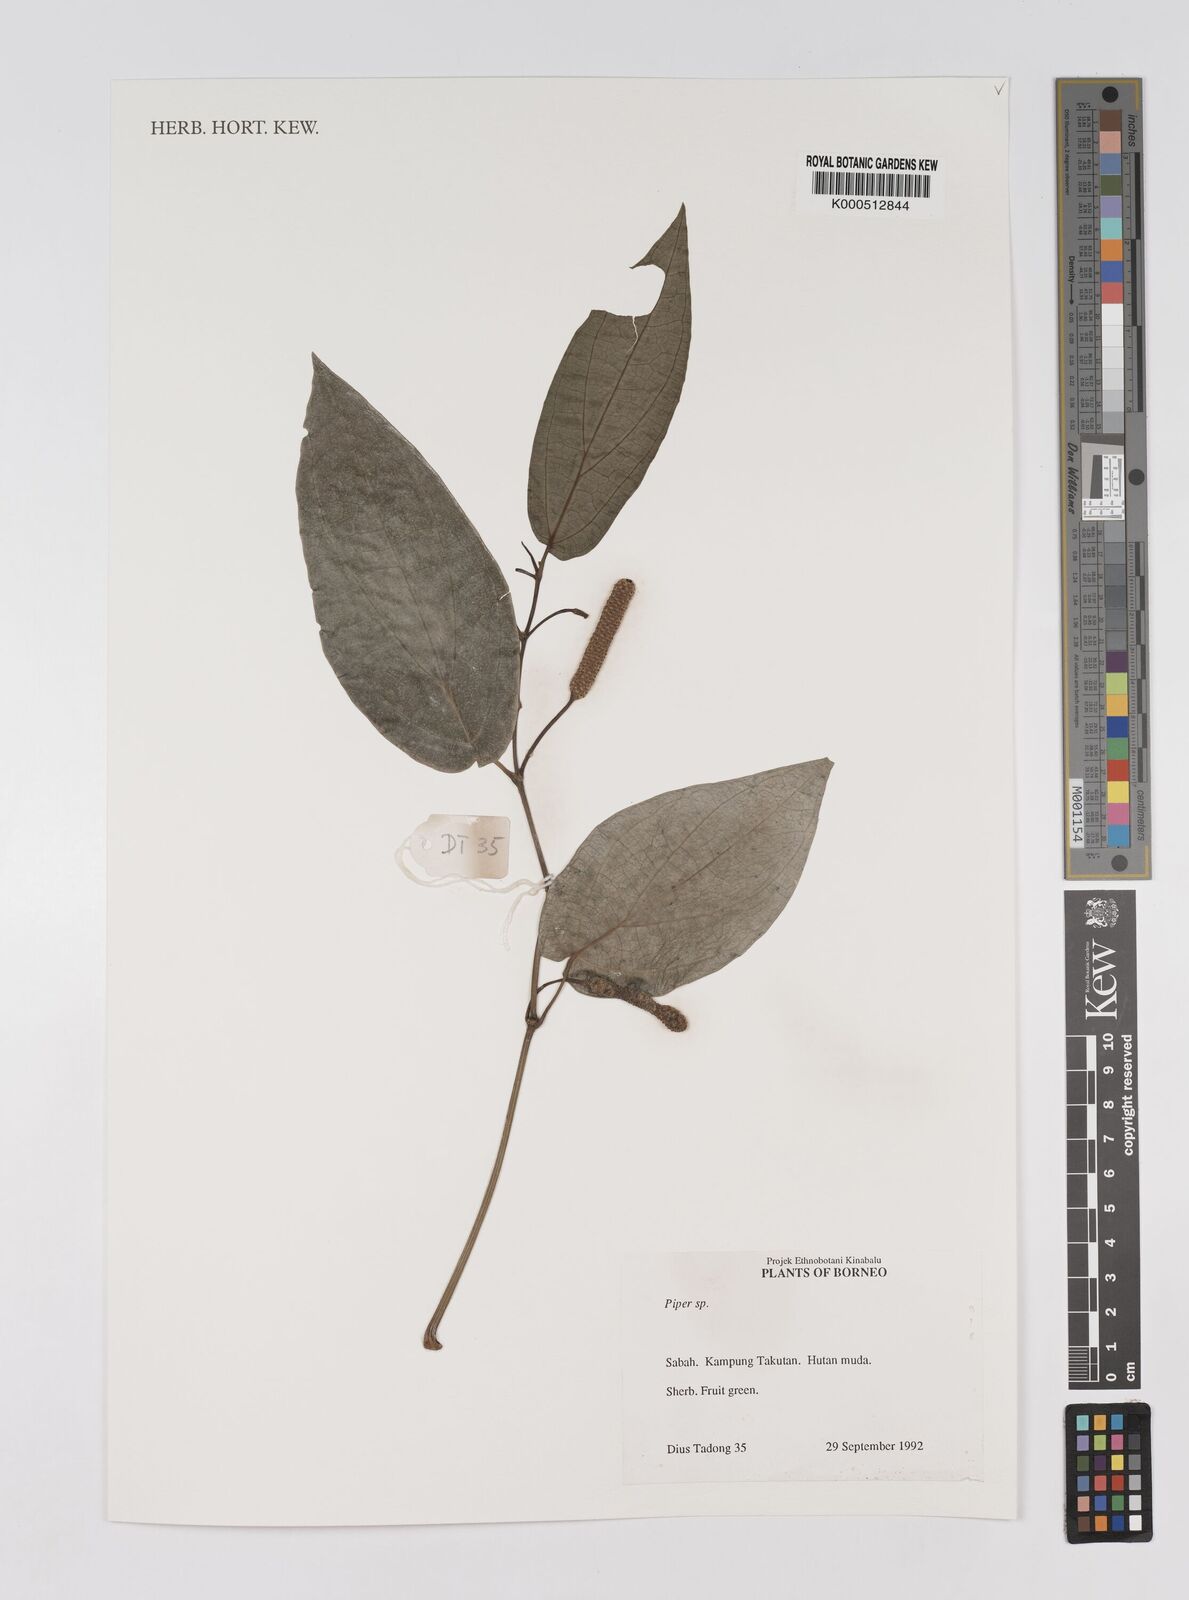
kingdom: Plantae
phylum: Tracheophyta
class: Magnoliopsida
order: Piperales
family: Piperaceae
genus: Piper
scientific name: Piper
